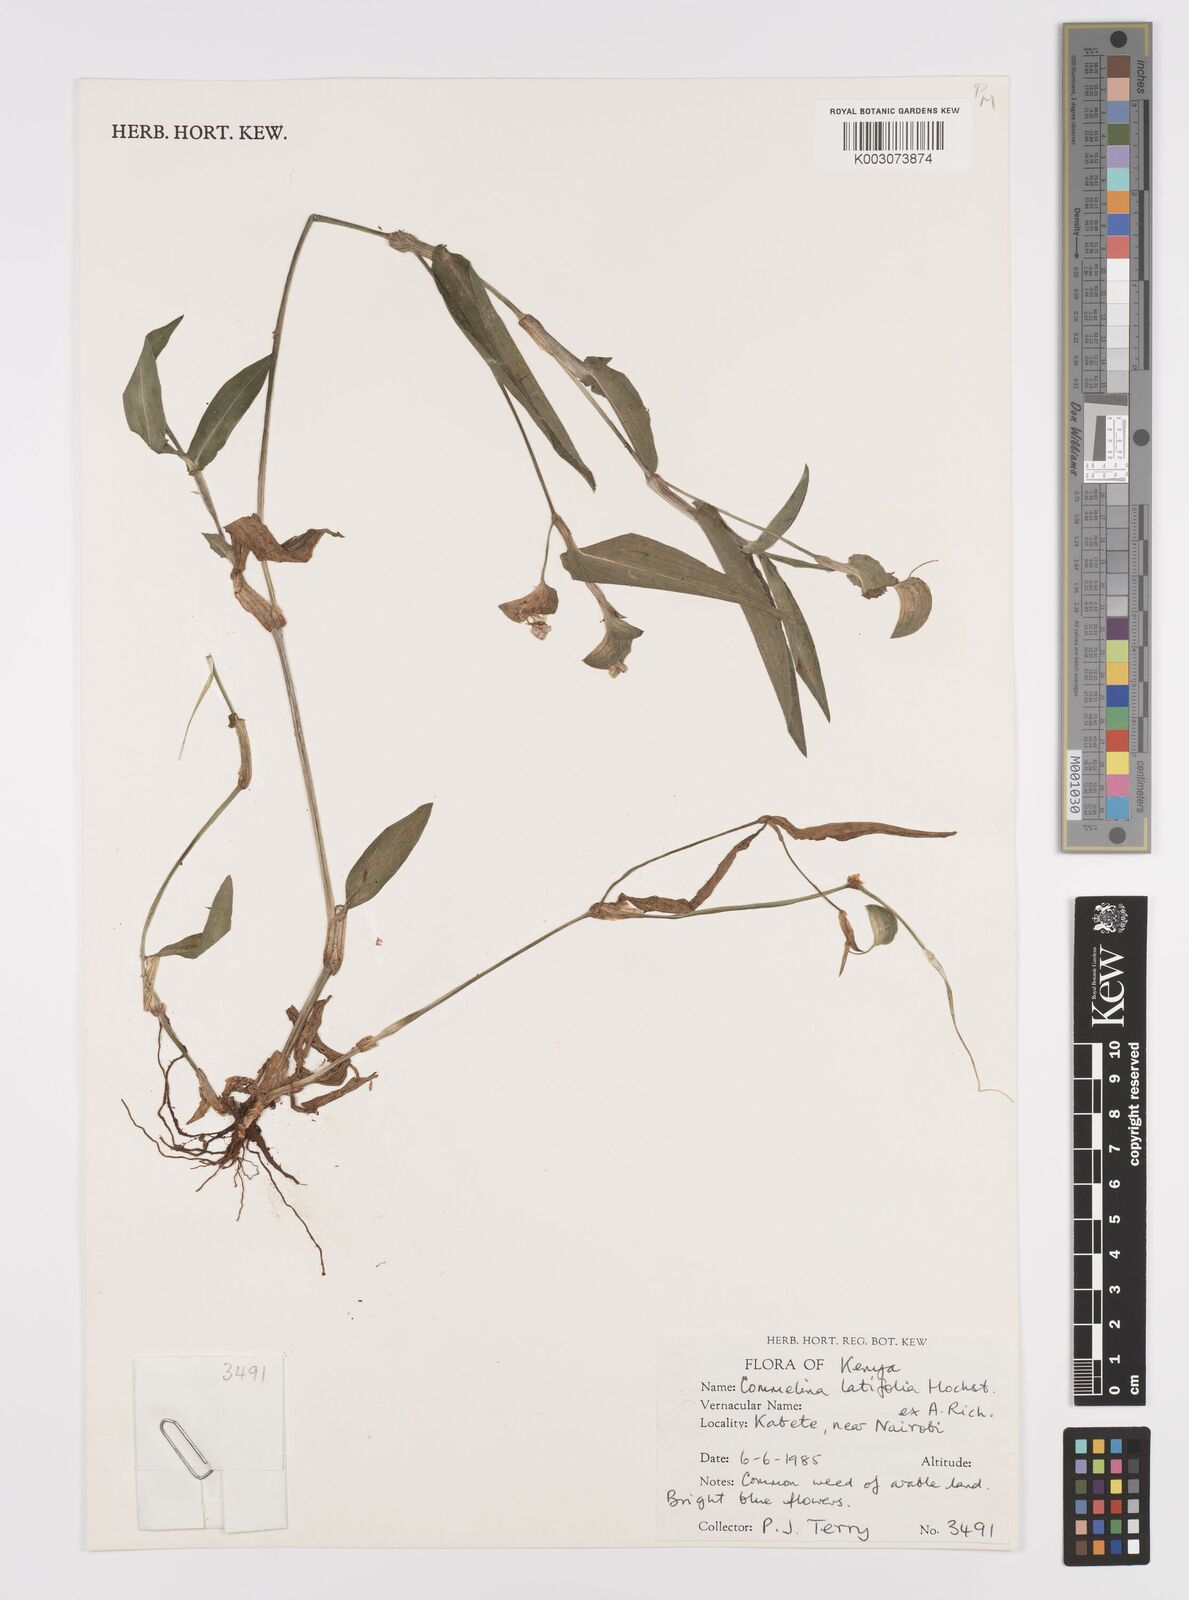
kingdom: Plantae
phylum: Tracheophyta
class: Liliopsida
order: Commelinales
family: Commelinaceae
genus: Commelina
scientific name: Commelina latifolia
